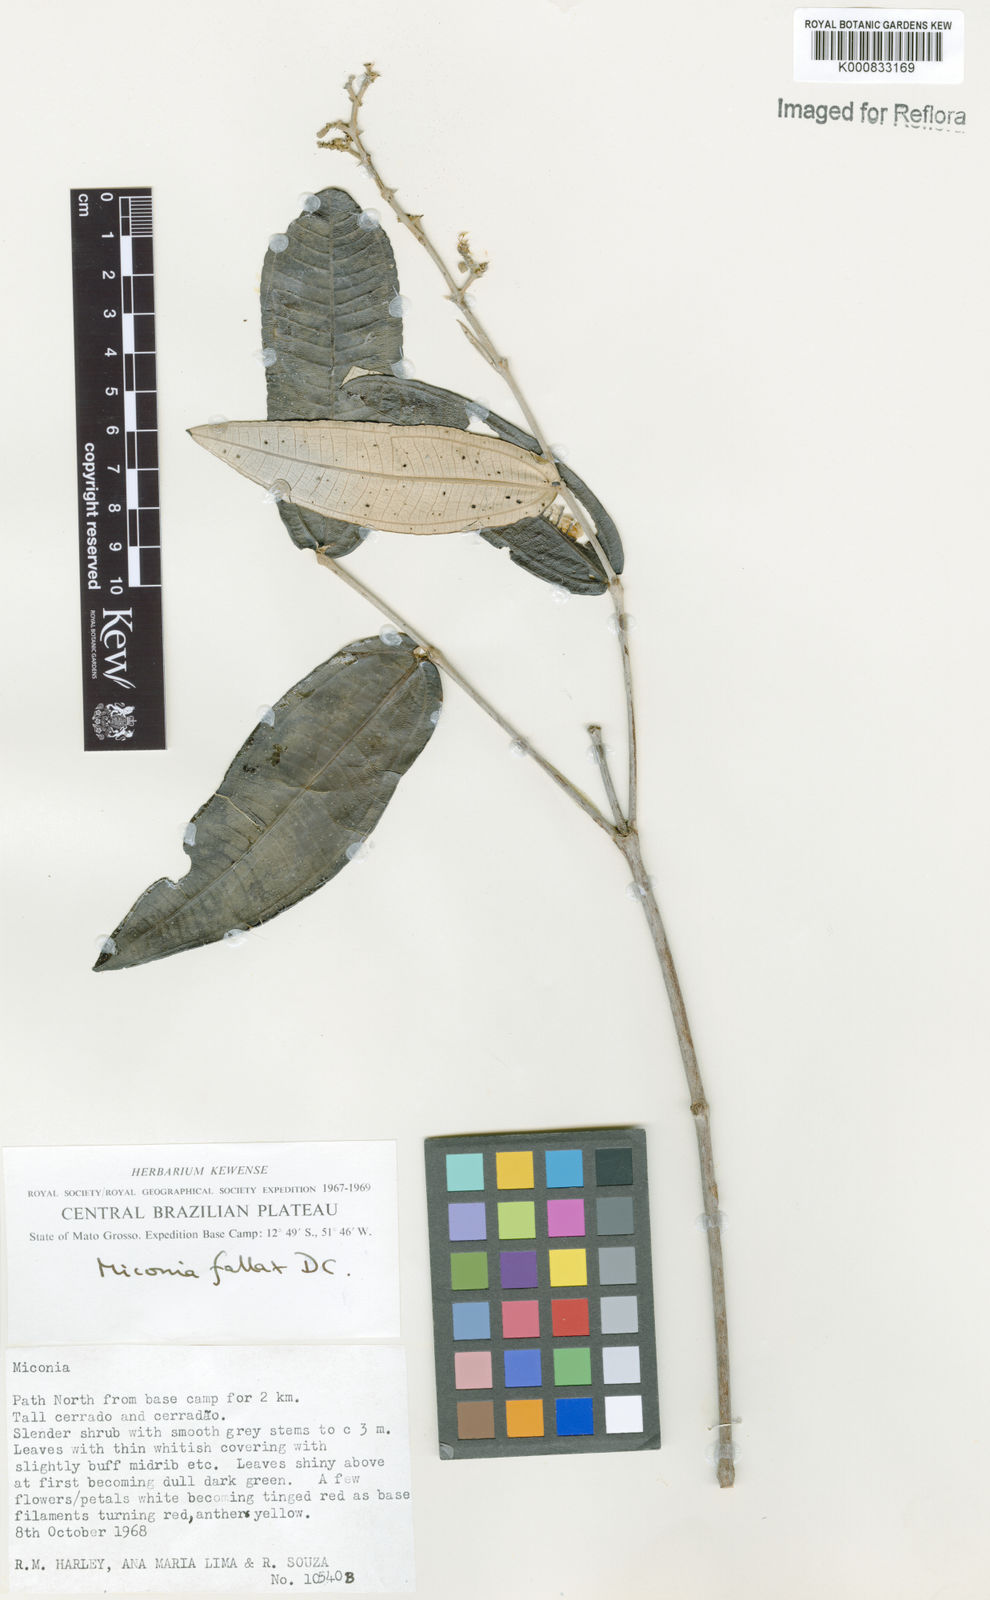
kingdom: Plantae
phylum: Tracheophyta
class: Magnoliopsida
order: Myrtales
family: Melastomataceae
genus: Miconia
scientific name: Miconia fallax
